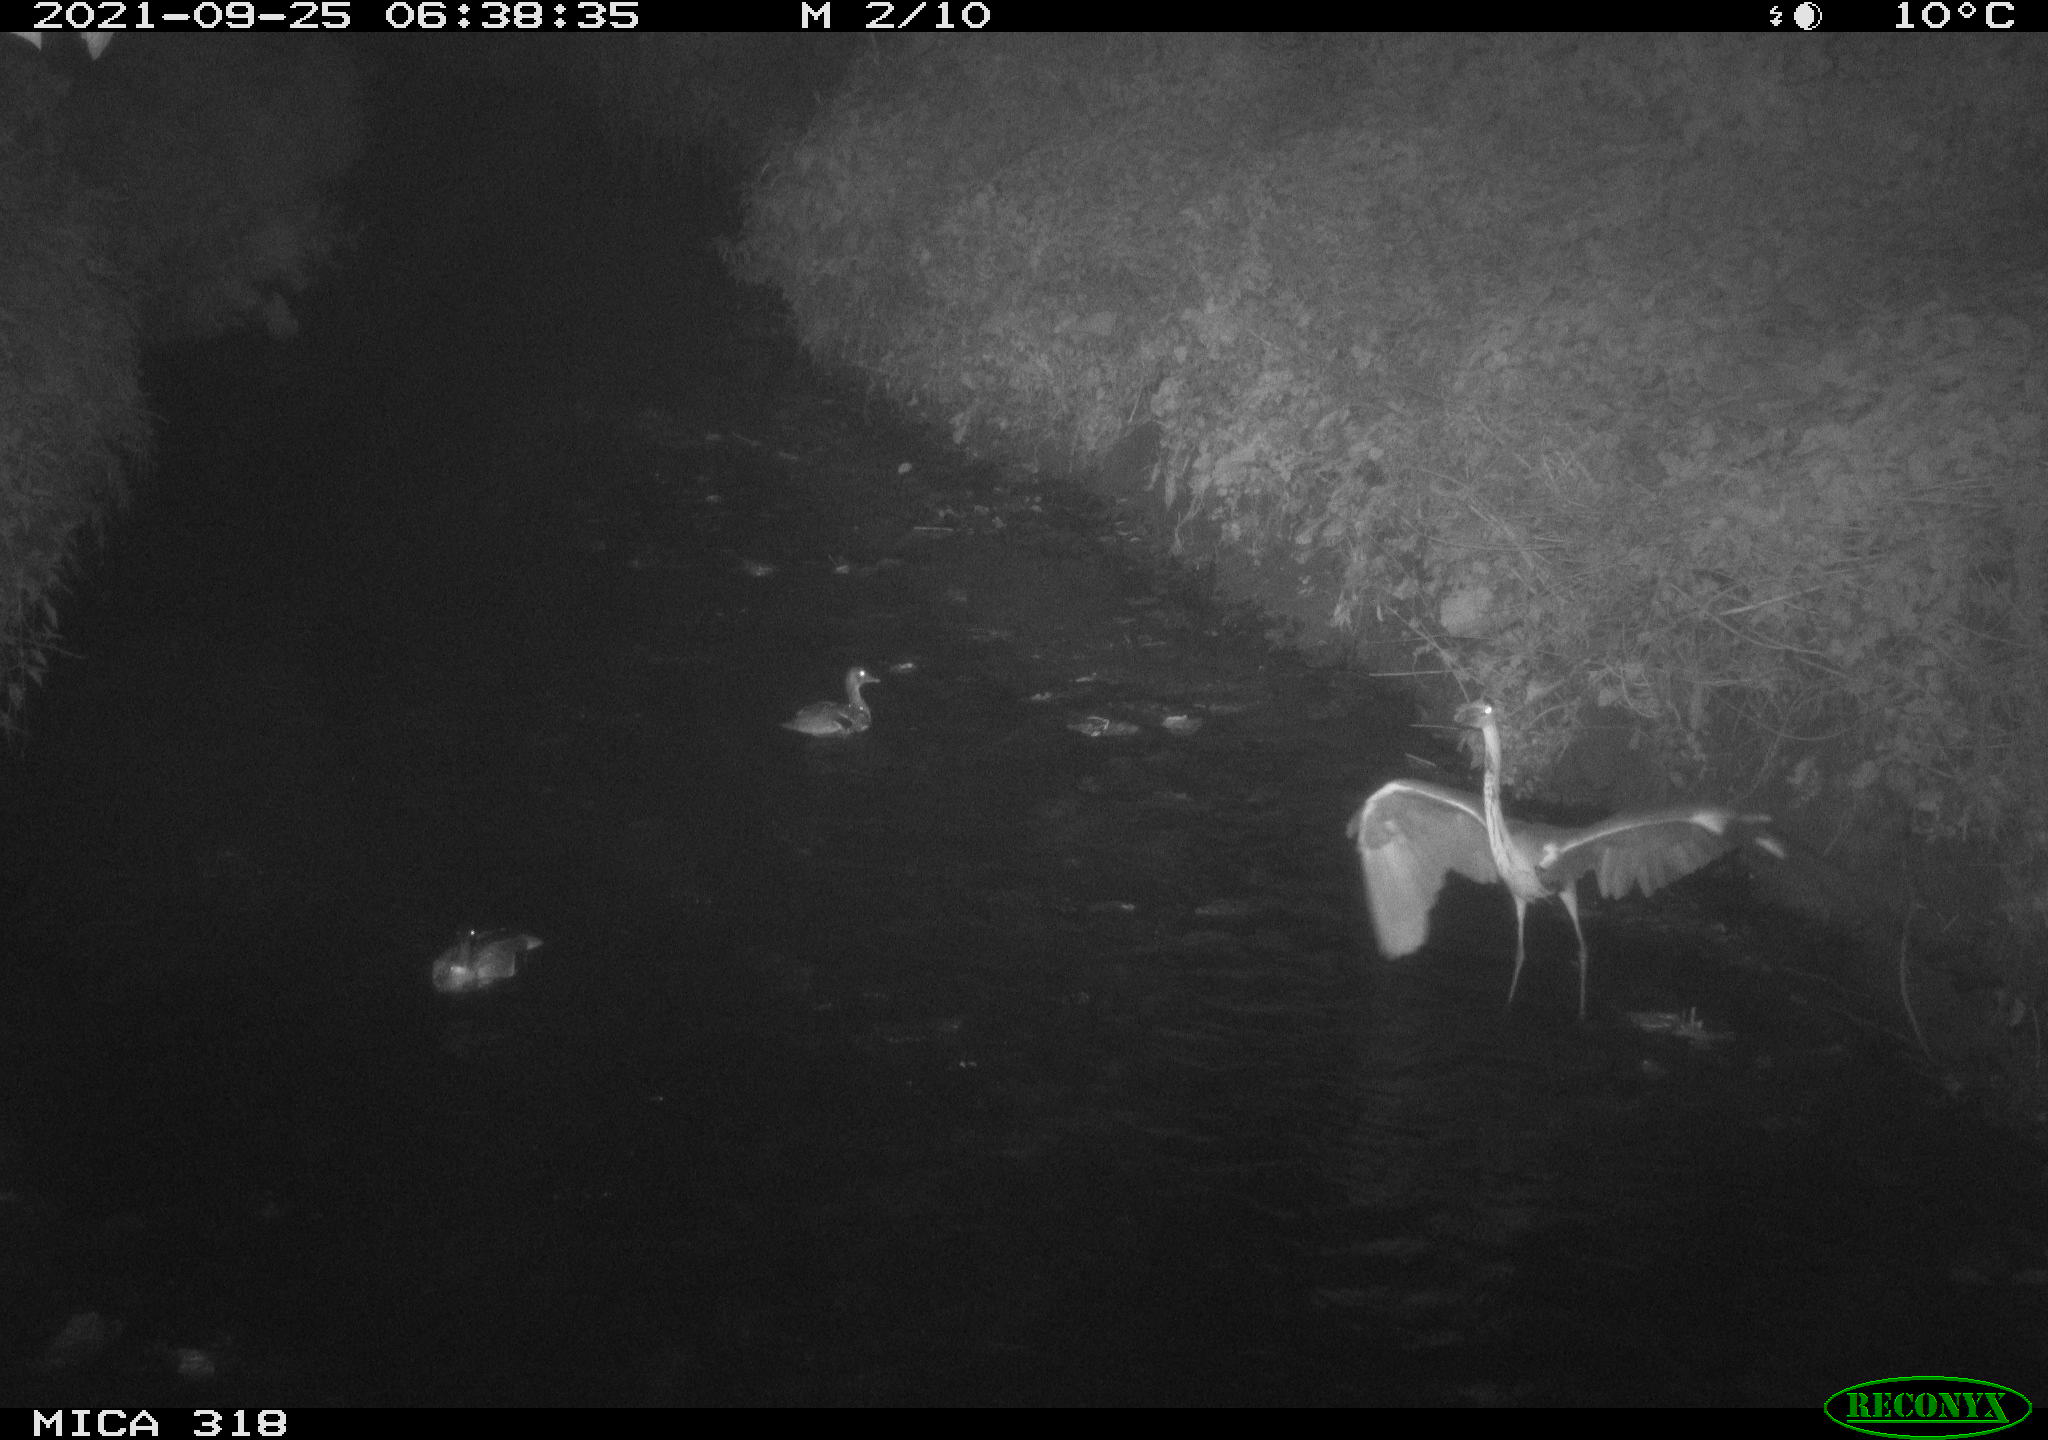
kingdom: Animalia
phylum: Chordata
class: Aves
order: Pelecaniformes
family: Ardeidae
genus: Ardea
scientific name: Ardea
